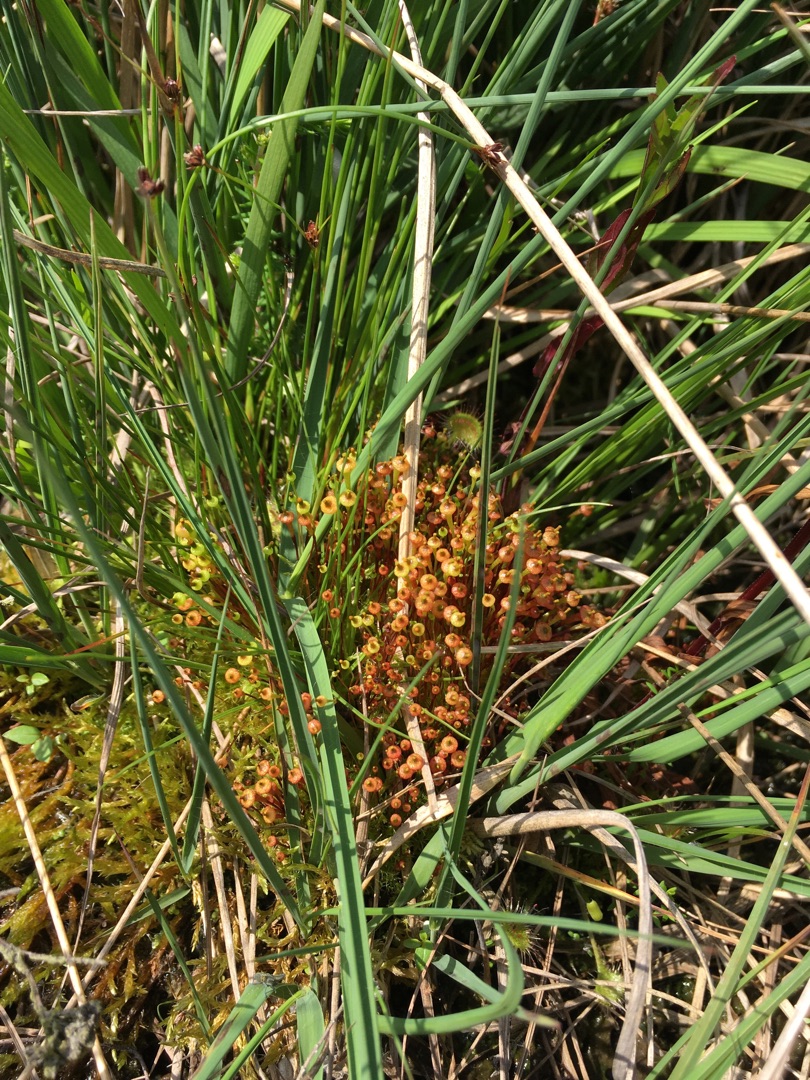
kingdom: Plantae
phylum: Bryophyta
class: Bryopsida
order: Splachnales
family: Splachnaceae
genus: Splachnum
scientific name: Splachnum ampullaceum
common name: Pære-møgmos
